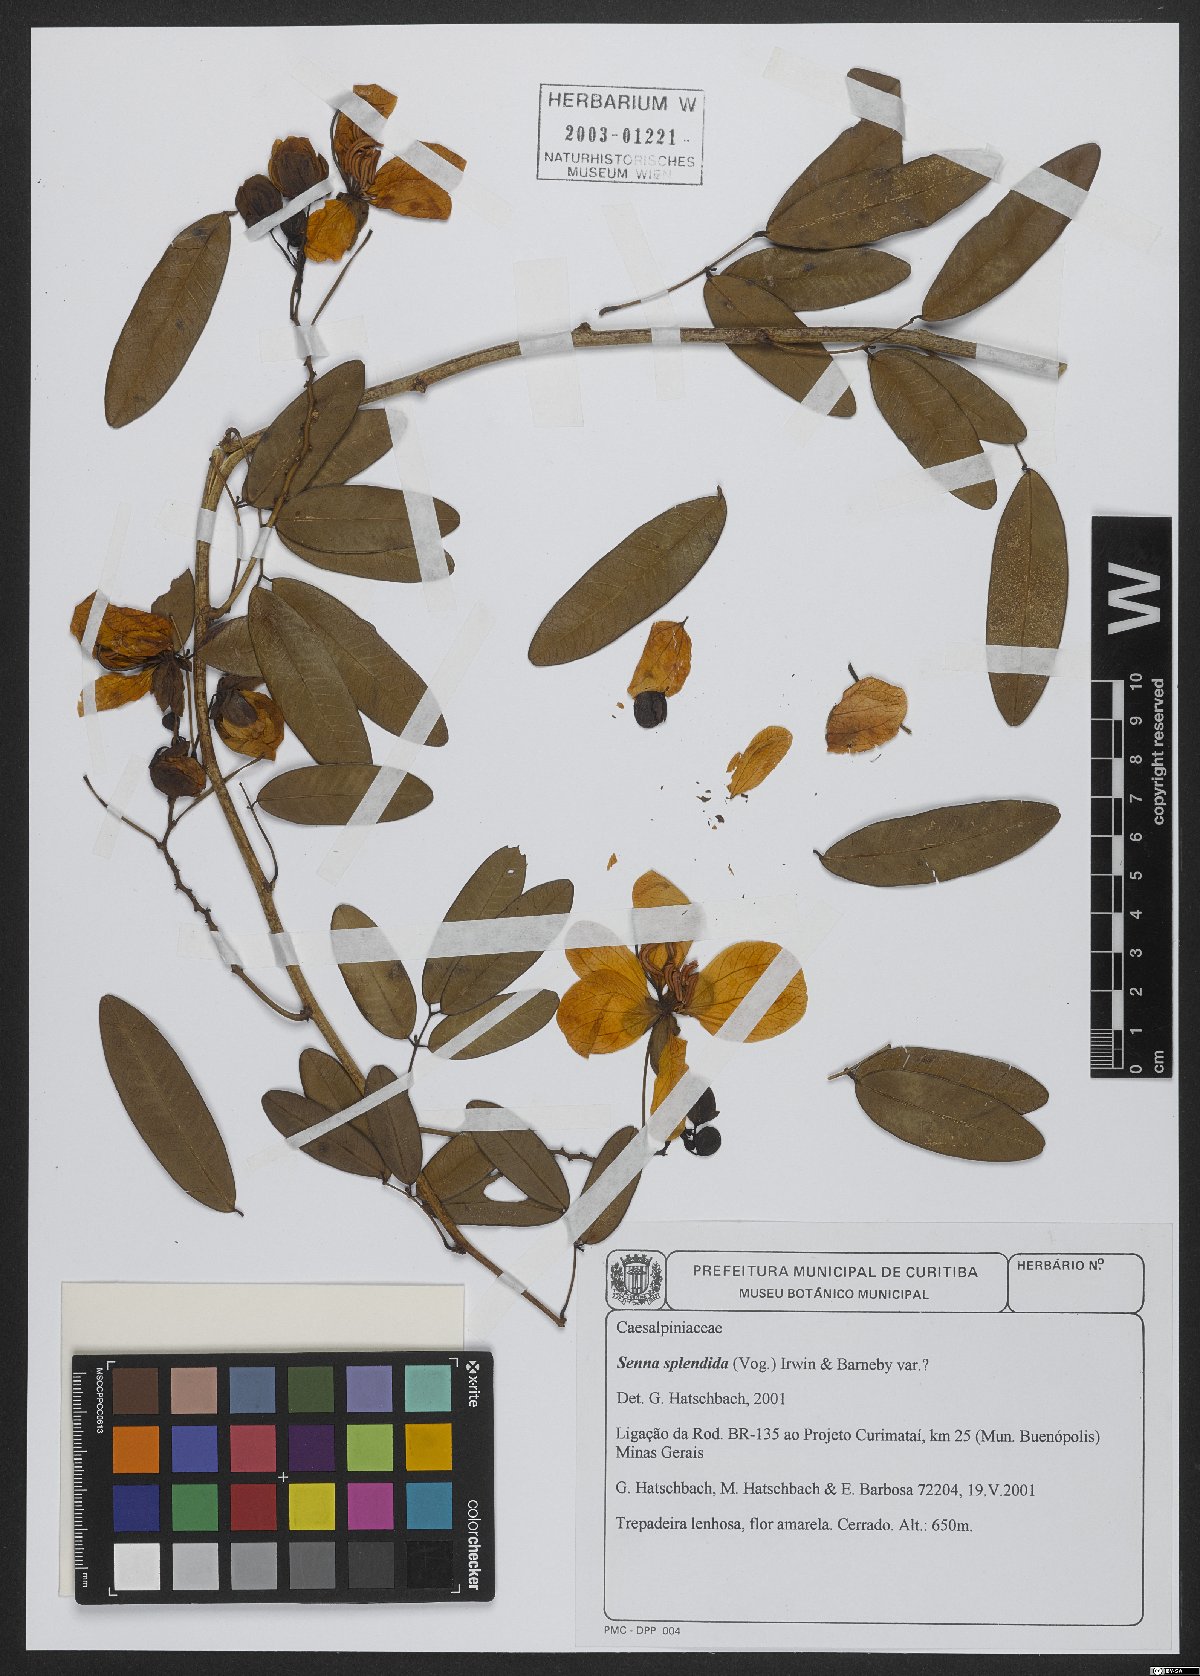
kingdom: Plantae
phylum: Tracheophyta
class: Magnoliopsida
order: Fabales
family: Fabaceae
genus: Senna
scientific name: Senna splendida
